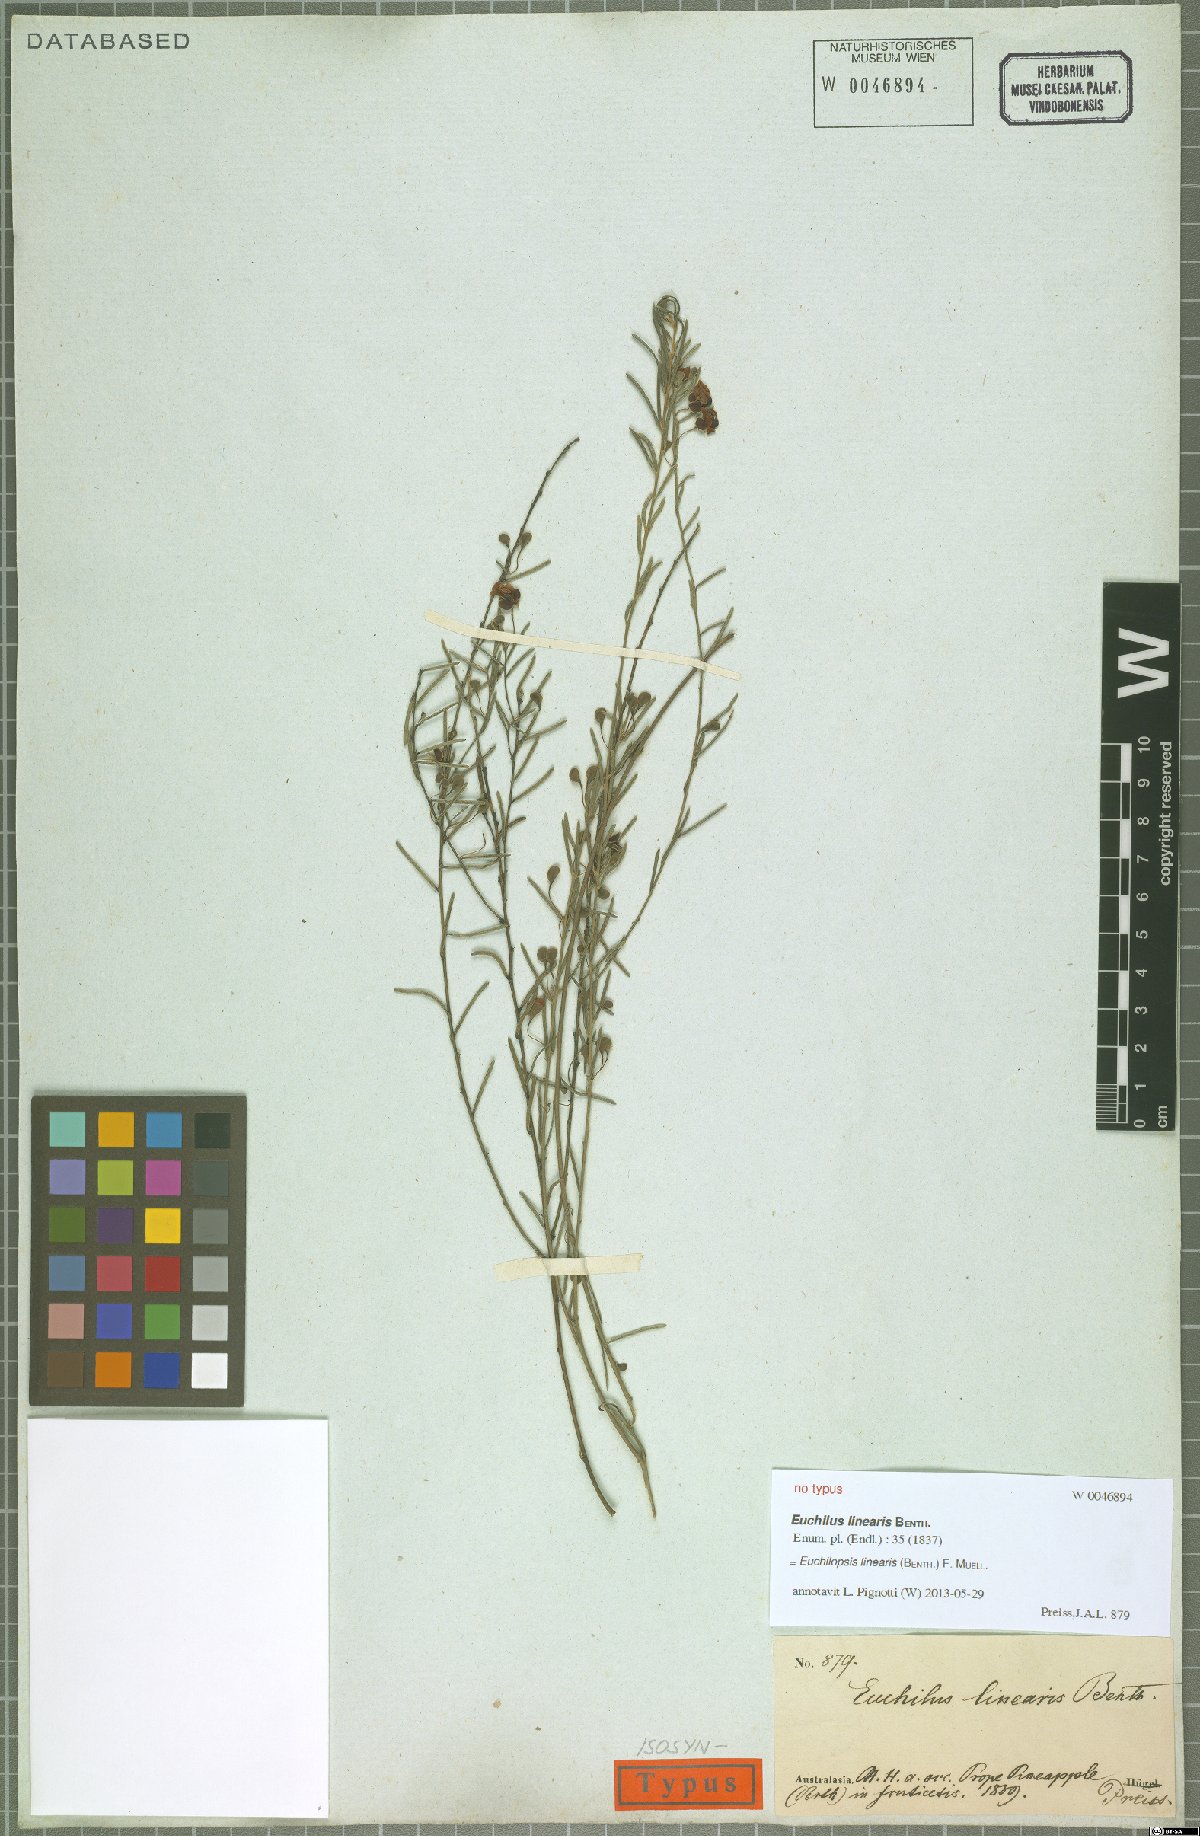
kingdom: Plantae
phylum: Tracheophyta
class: Magnoliopsida
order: Fabales
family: Fabaceae
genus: Euchilopsis
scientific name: Euchilopsis linearis
